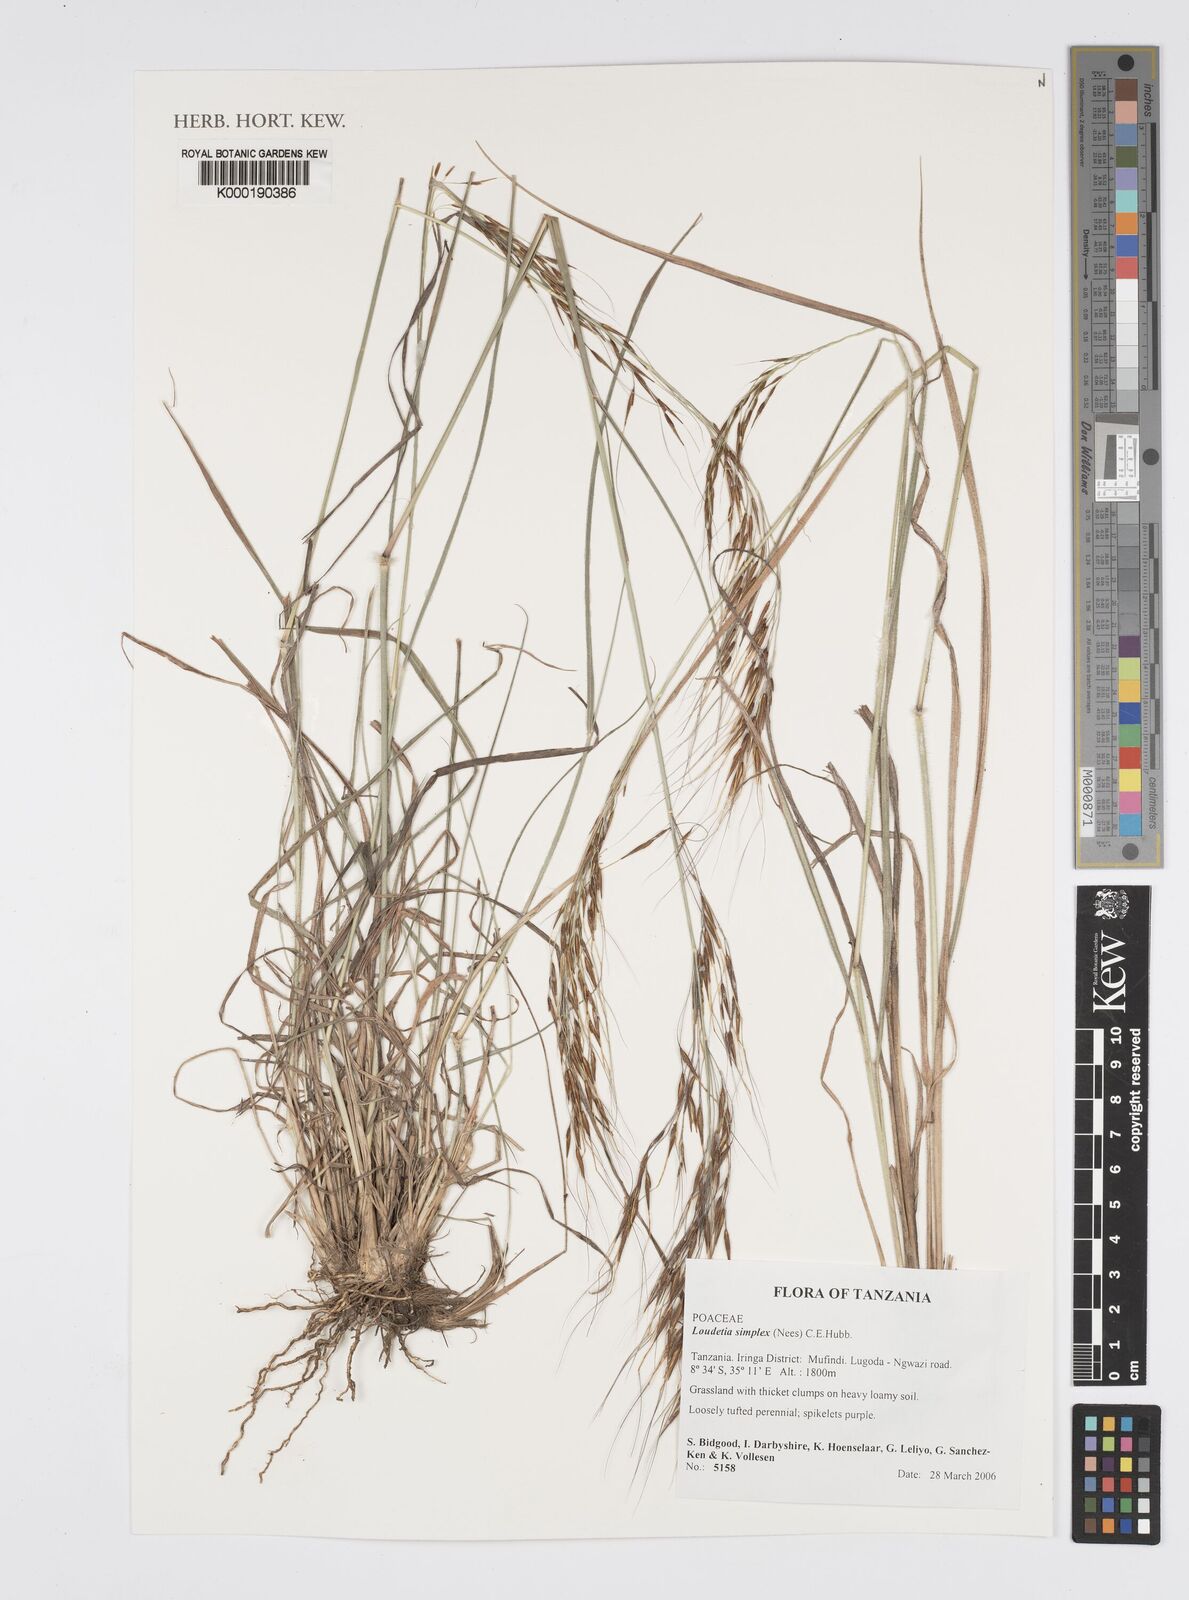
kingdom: Plantae
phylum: Tracheophyta
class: Liliopsida
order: Poales
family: Poaceae
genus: Loudetia
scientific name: Loudetia simplex
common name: Common russet grass
